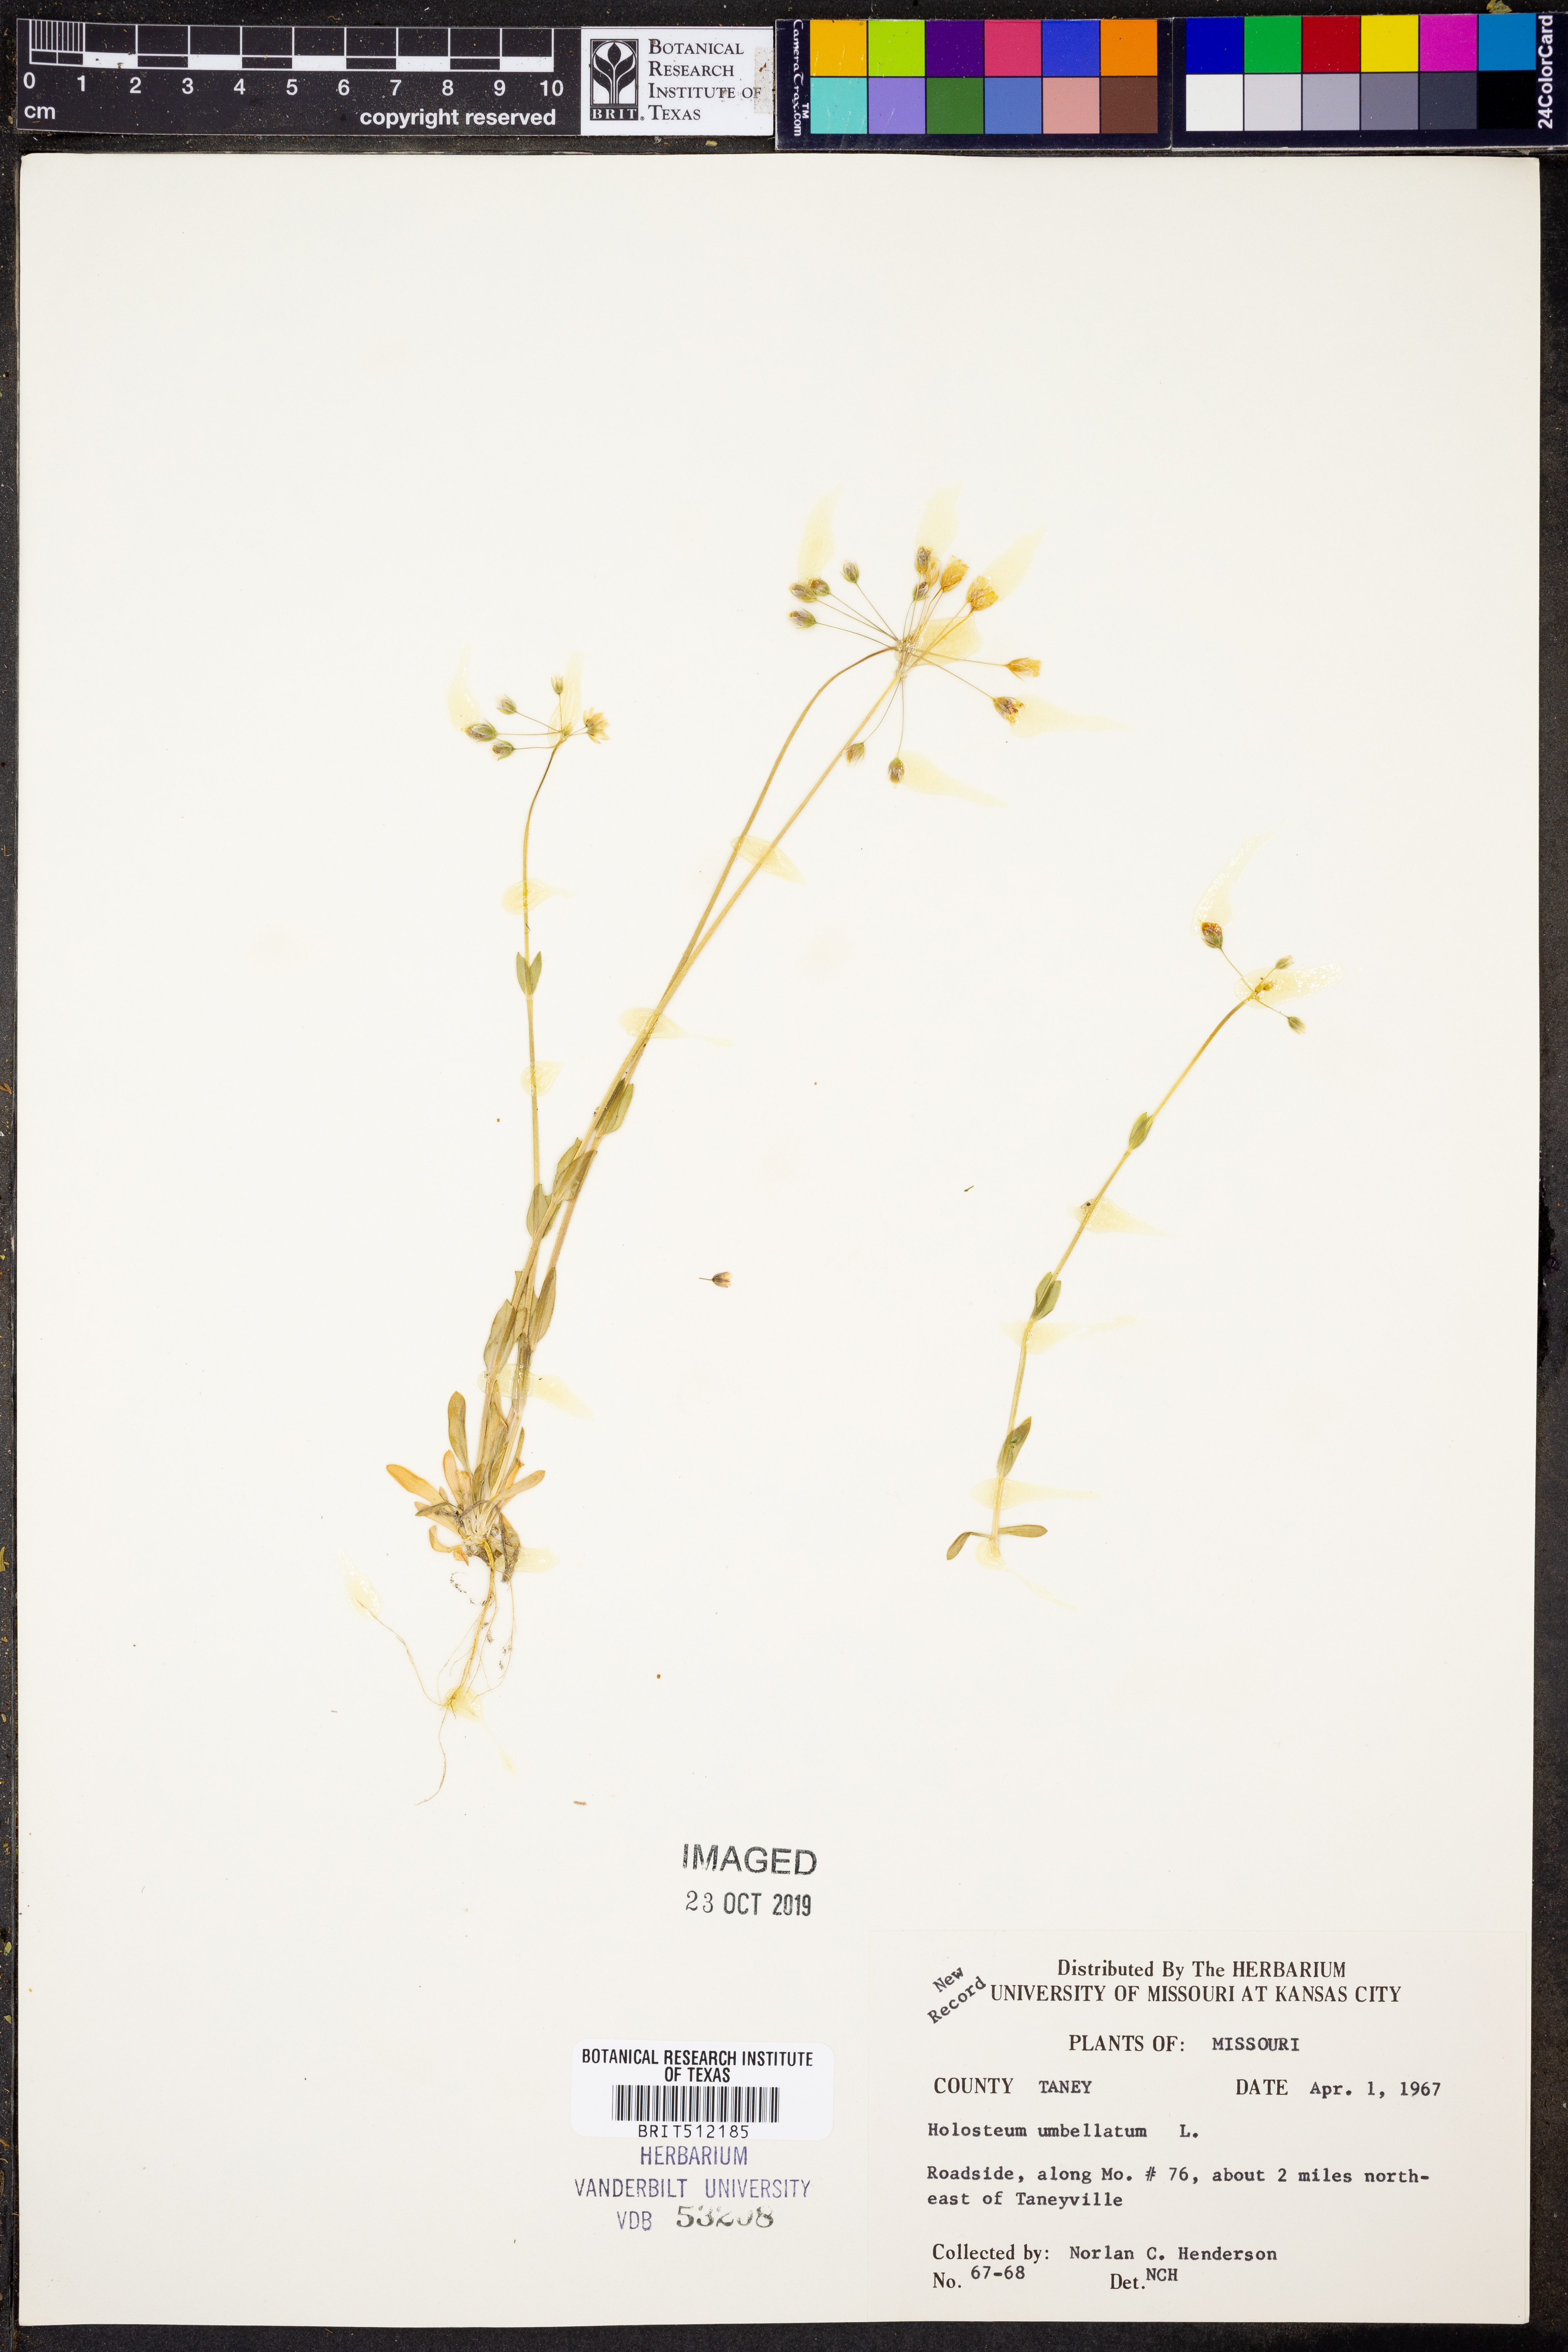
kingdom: Plantae
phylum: Tracheophyta
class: Magnoliopsida
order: Caryophyllales
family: Caryophyllaceae
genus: Holosteum
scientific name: Holosteum umbellatum
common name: Jagged chickweed
